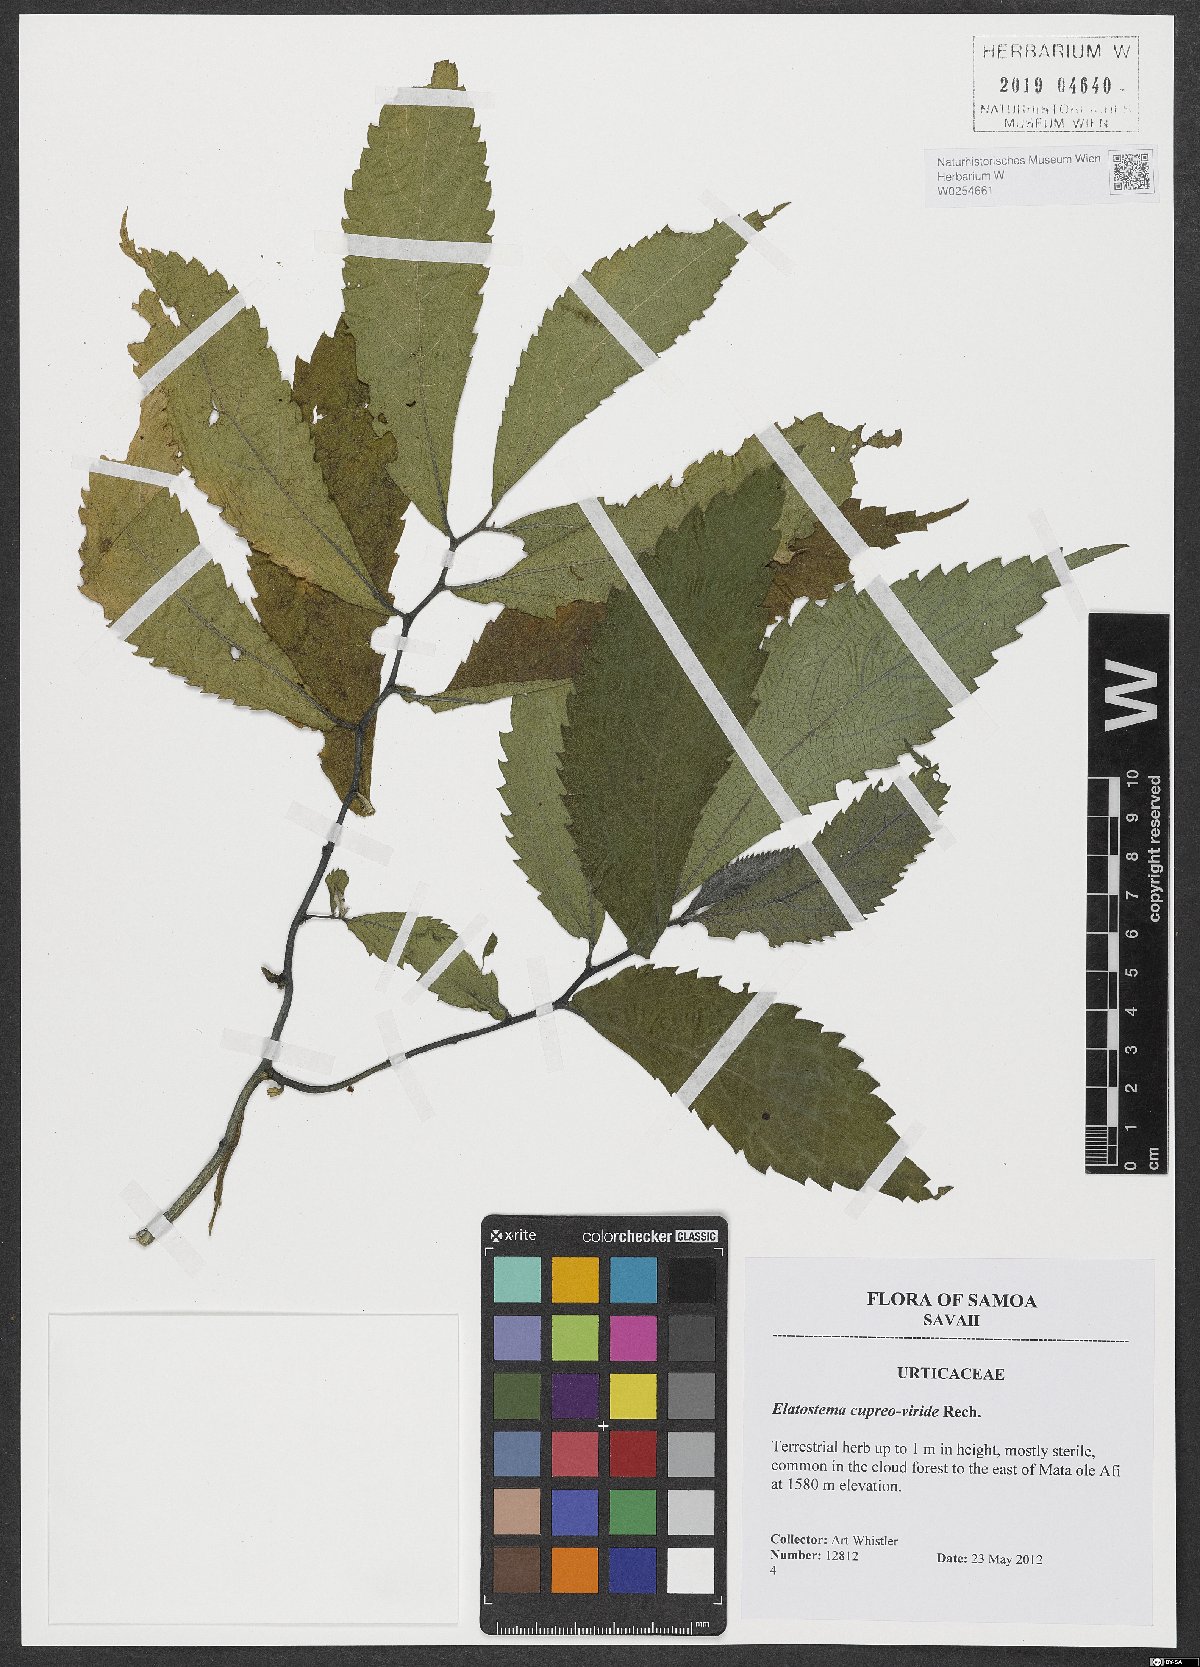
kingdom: Plantae
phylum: Tracheophyta
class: Magnoliopsida
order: Rosales
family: Urticaceae
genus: Elatostema
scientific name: Elatostema cupreoviride
